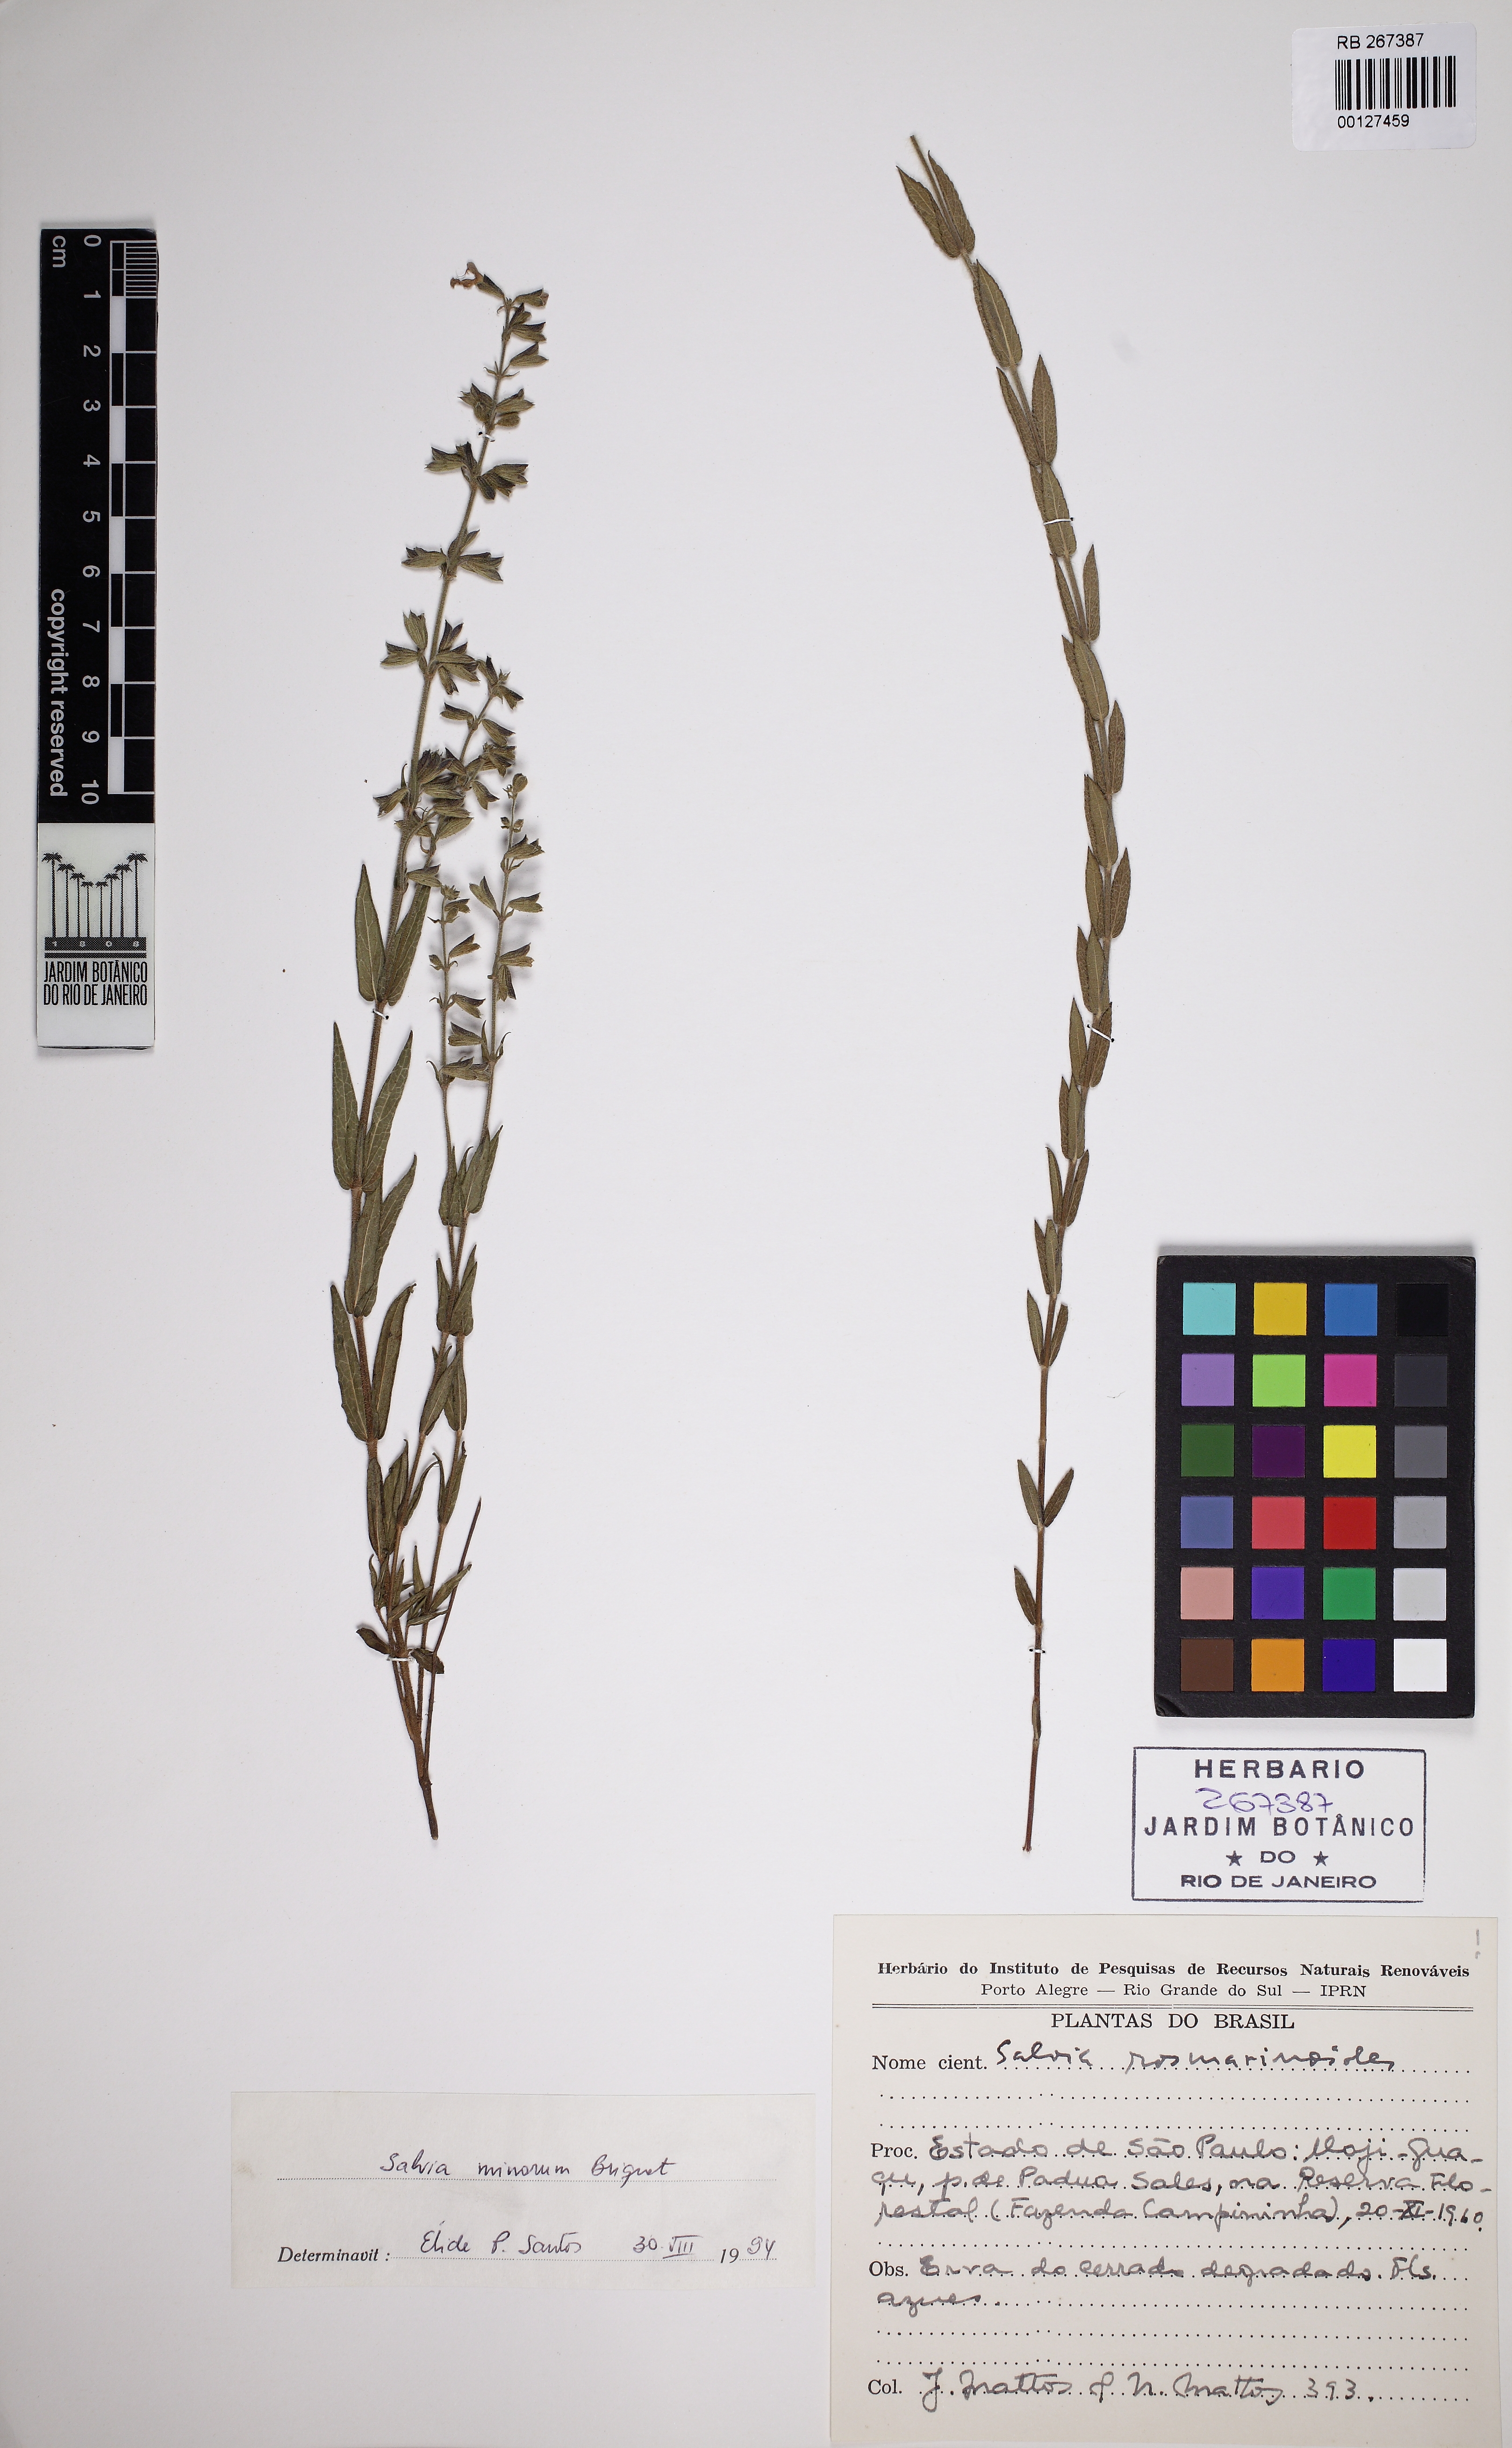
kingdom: Plantae
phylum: Tracheophyta
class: Magnoliopsida
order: Lamiales
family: Lamiaceae
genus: Salvia
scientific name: Salvia minarum
